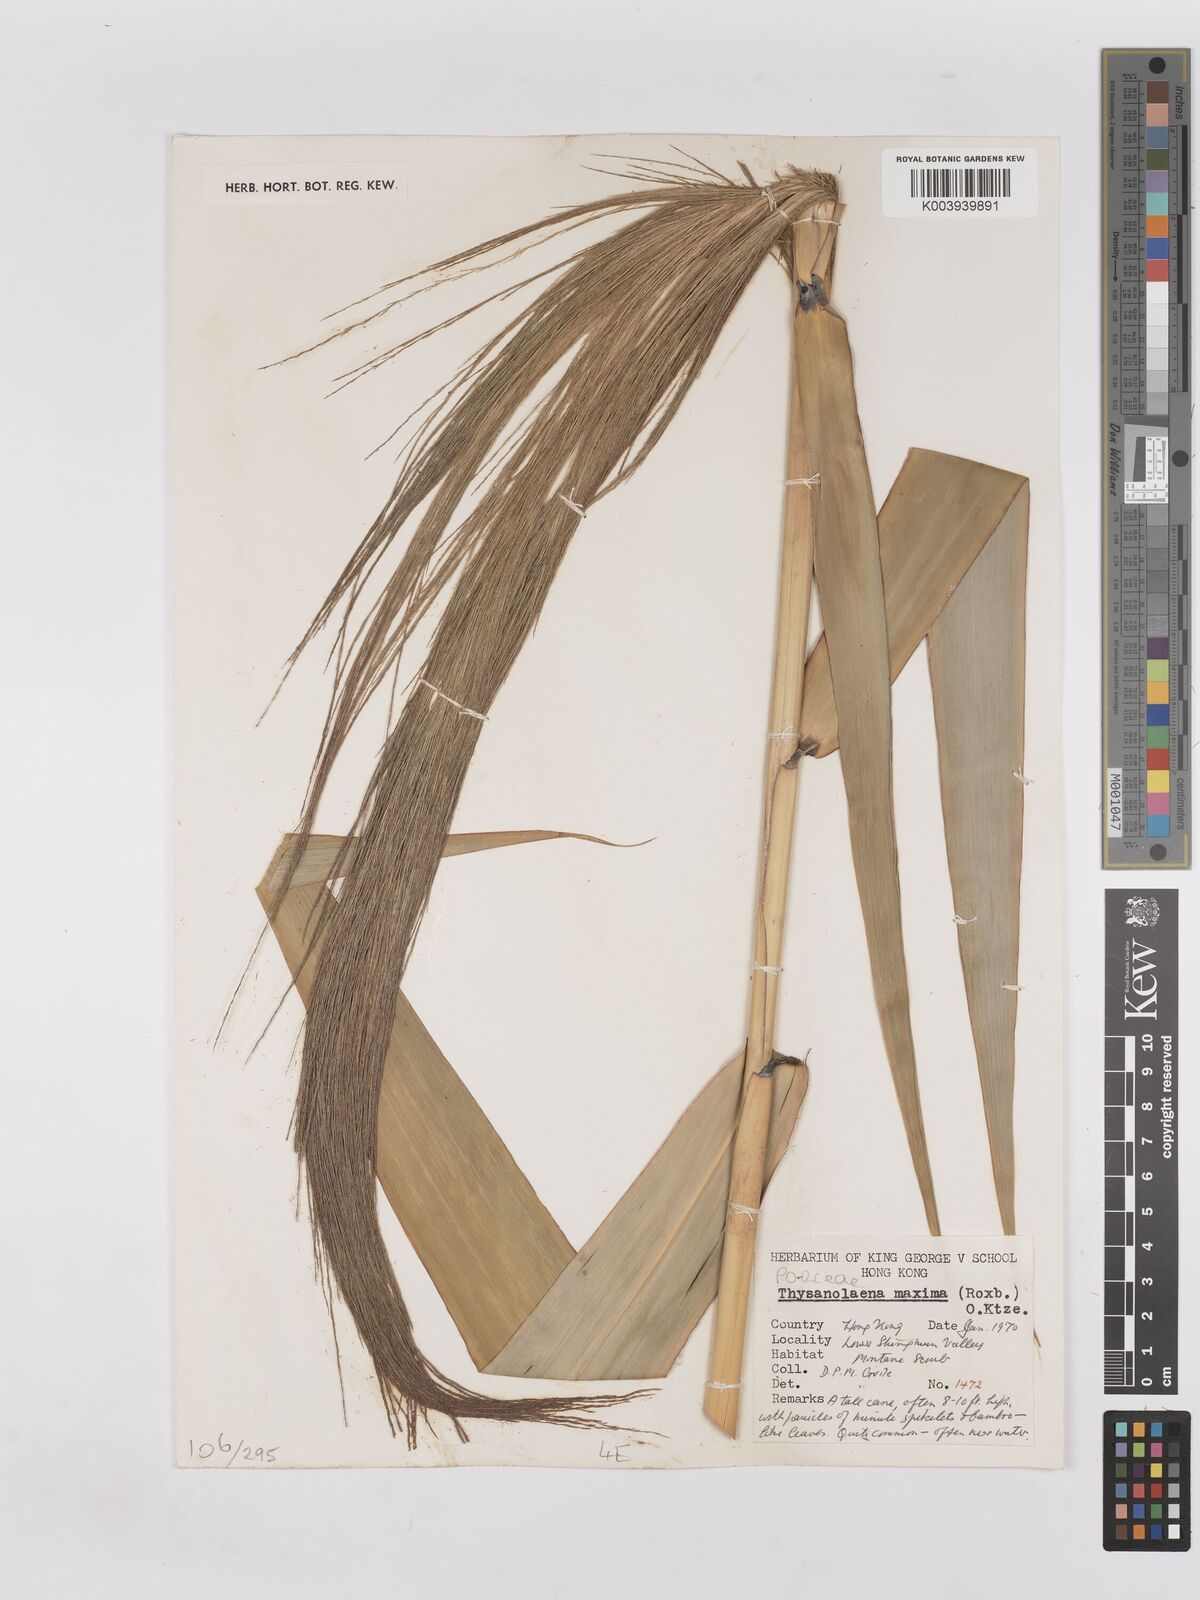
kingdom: Plantae
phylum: Tracheophyta
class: Liliopsida
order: Poales
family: Poaceae
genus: Thysanolaena
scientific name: Thysanolaena latifolia
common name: Tiger grass
